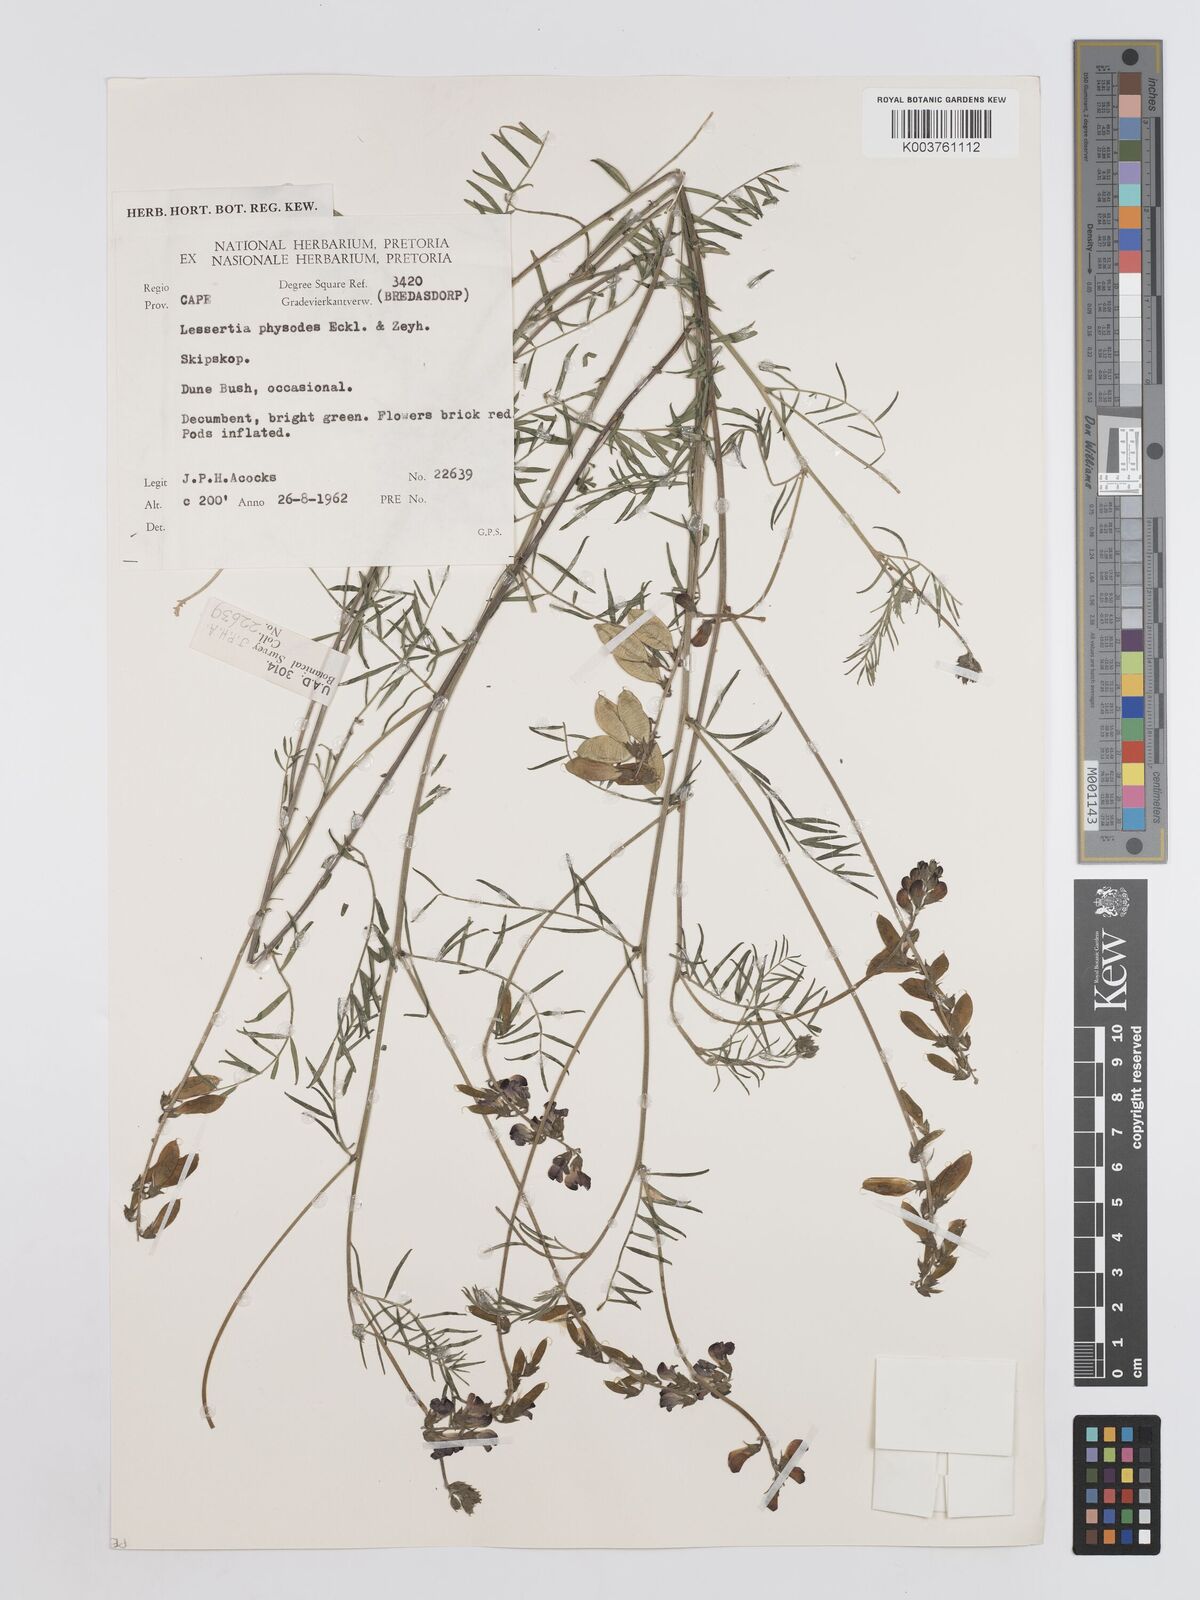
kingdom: Plantae
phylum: Tracheophyta
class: Magnoliopsida
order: Fabales
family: Fabaceae
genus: Lessertia
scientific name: Lessertia physodes
